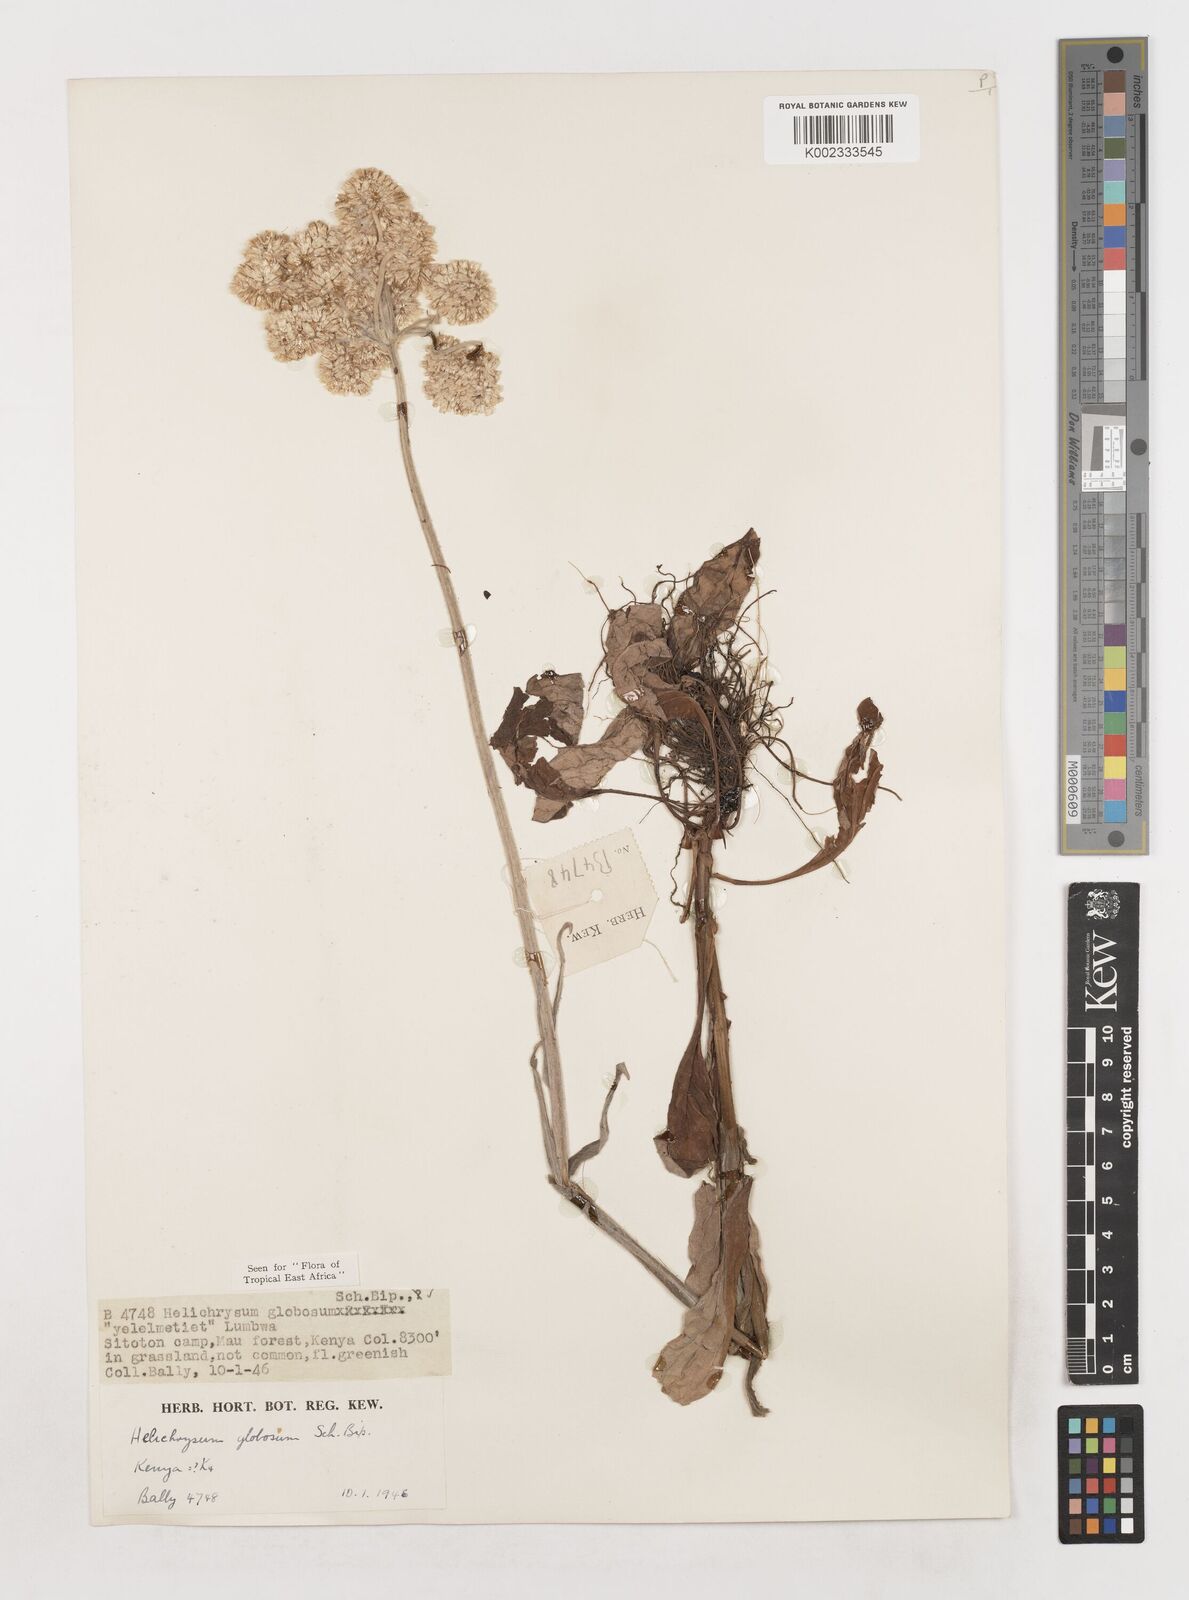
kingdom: Plantae
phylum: Tracheophyta
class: Magnoliopsida
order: Asterales
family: Asteraceae
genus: Helichrysum
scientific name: Helichrysum globosum
